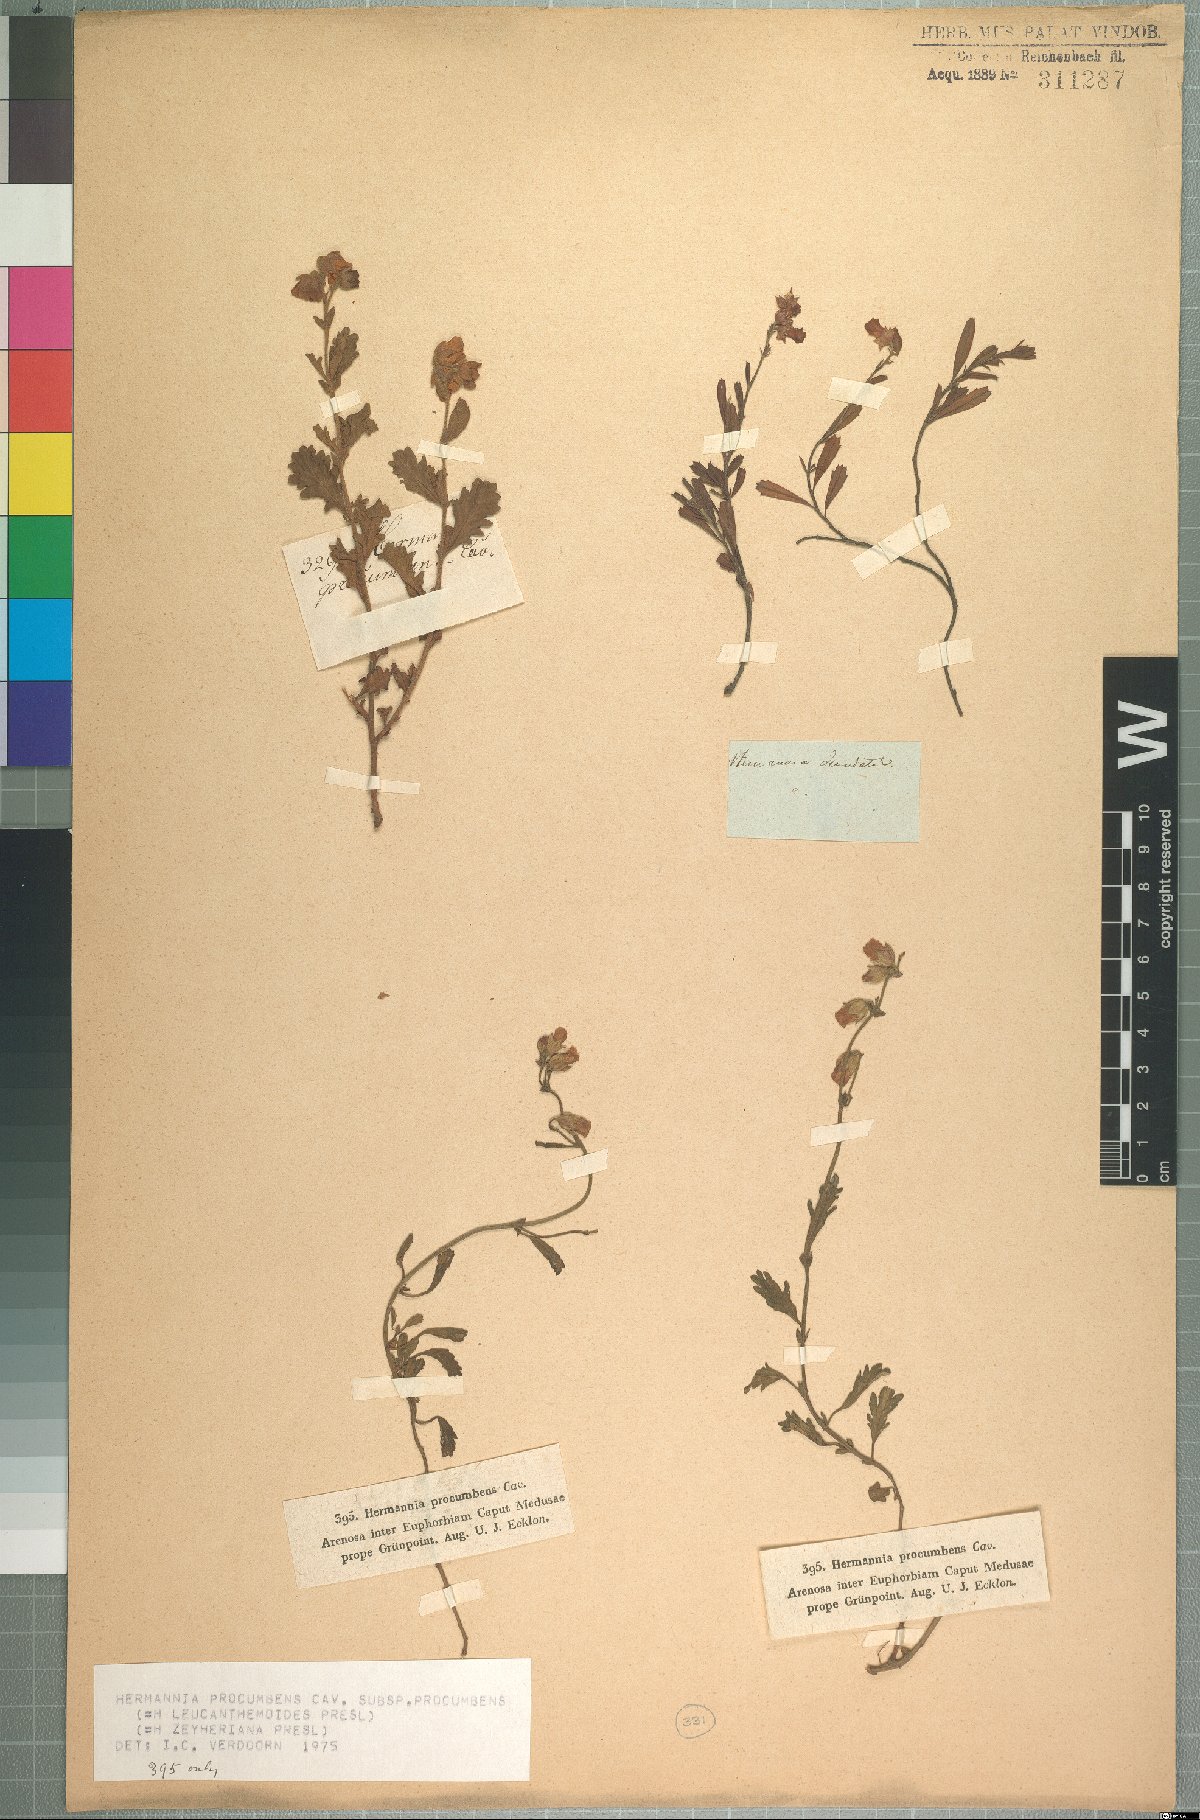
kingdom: Plantae
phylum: Tracheophyta
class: Magnoliopsida
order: Malvales
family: Malvaceae
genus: Hermannia
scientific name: Hermannia procumbens
